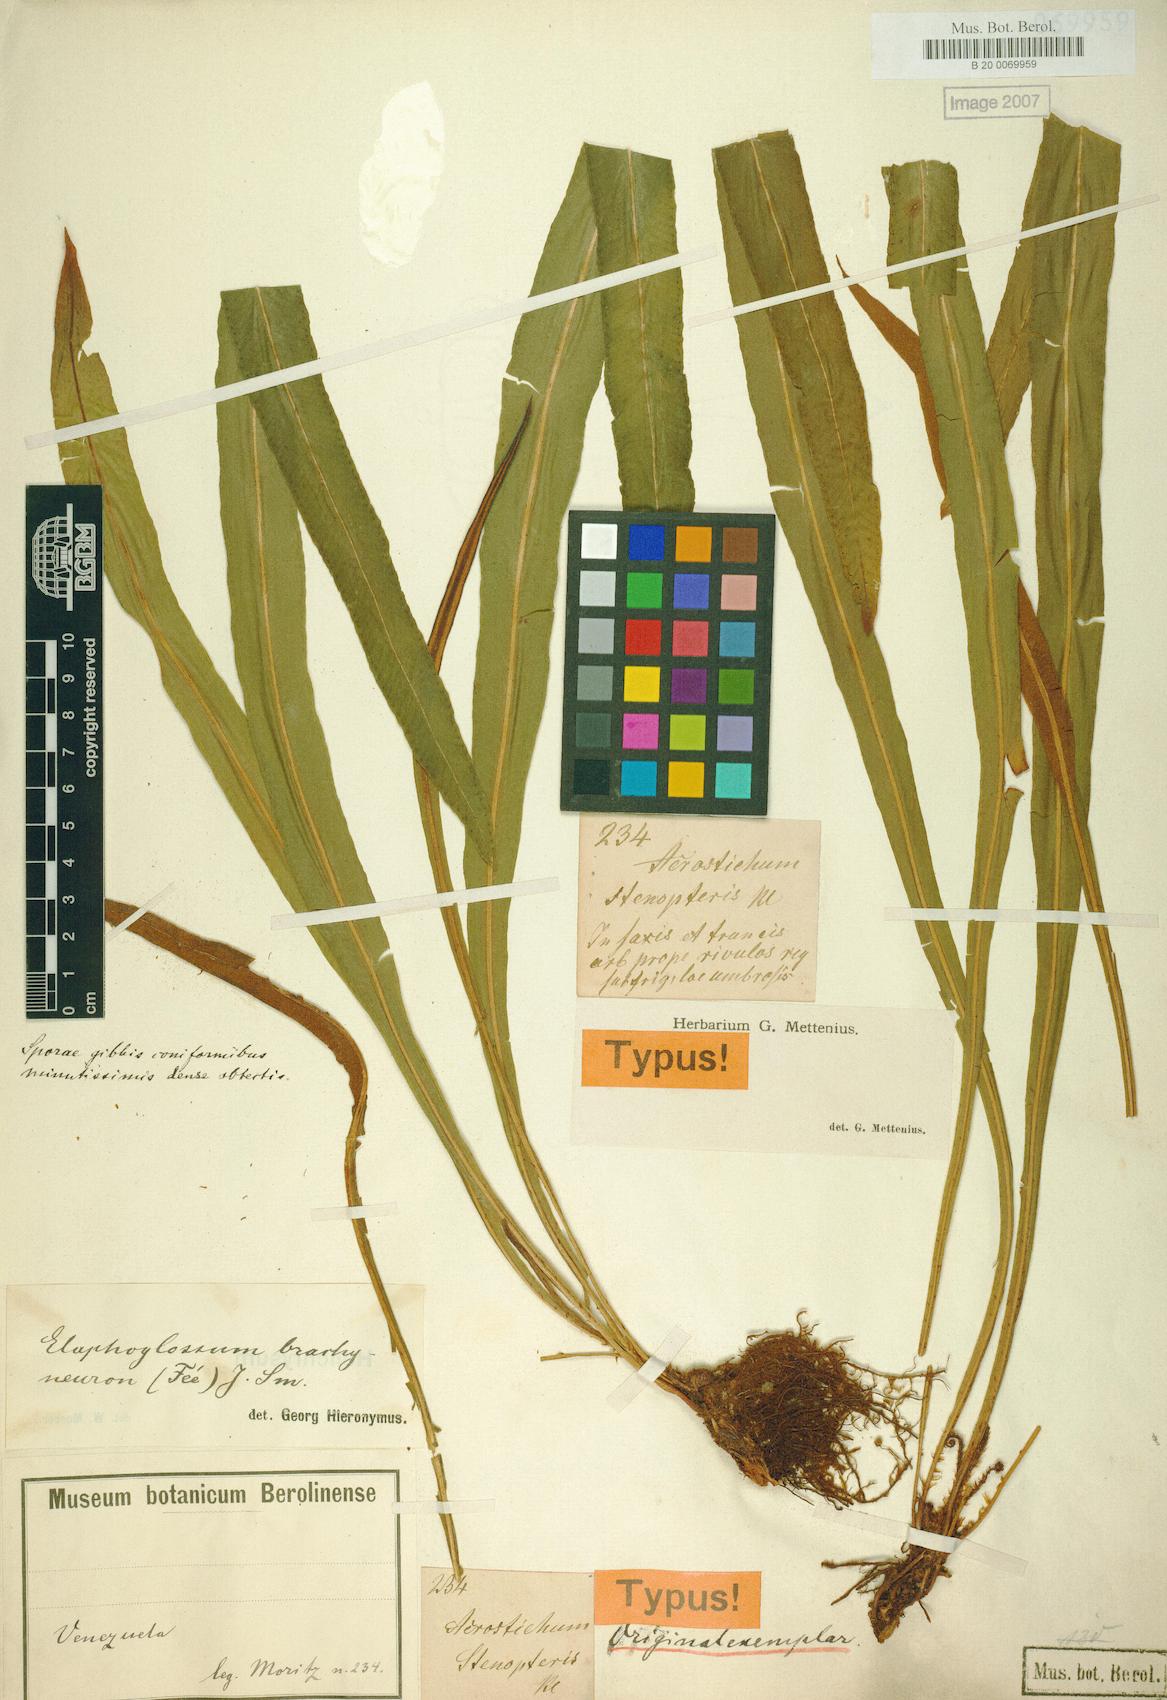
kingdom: Plantae
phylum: Tracheophyta
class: Polypodiopsida
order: Polypodiales
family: Dryopteridaceae
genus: Elaphoglossum
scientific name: Elaphoglossum brachyneuron
